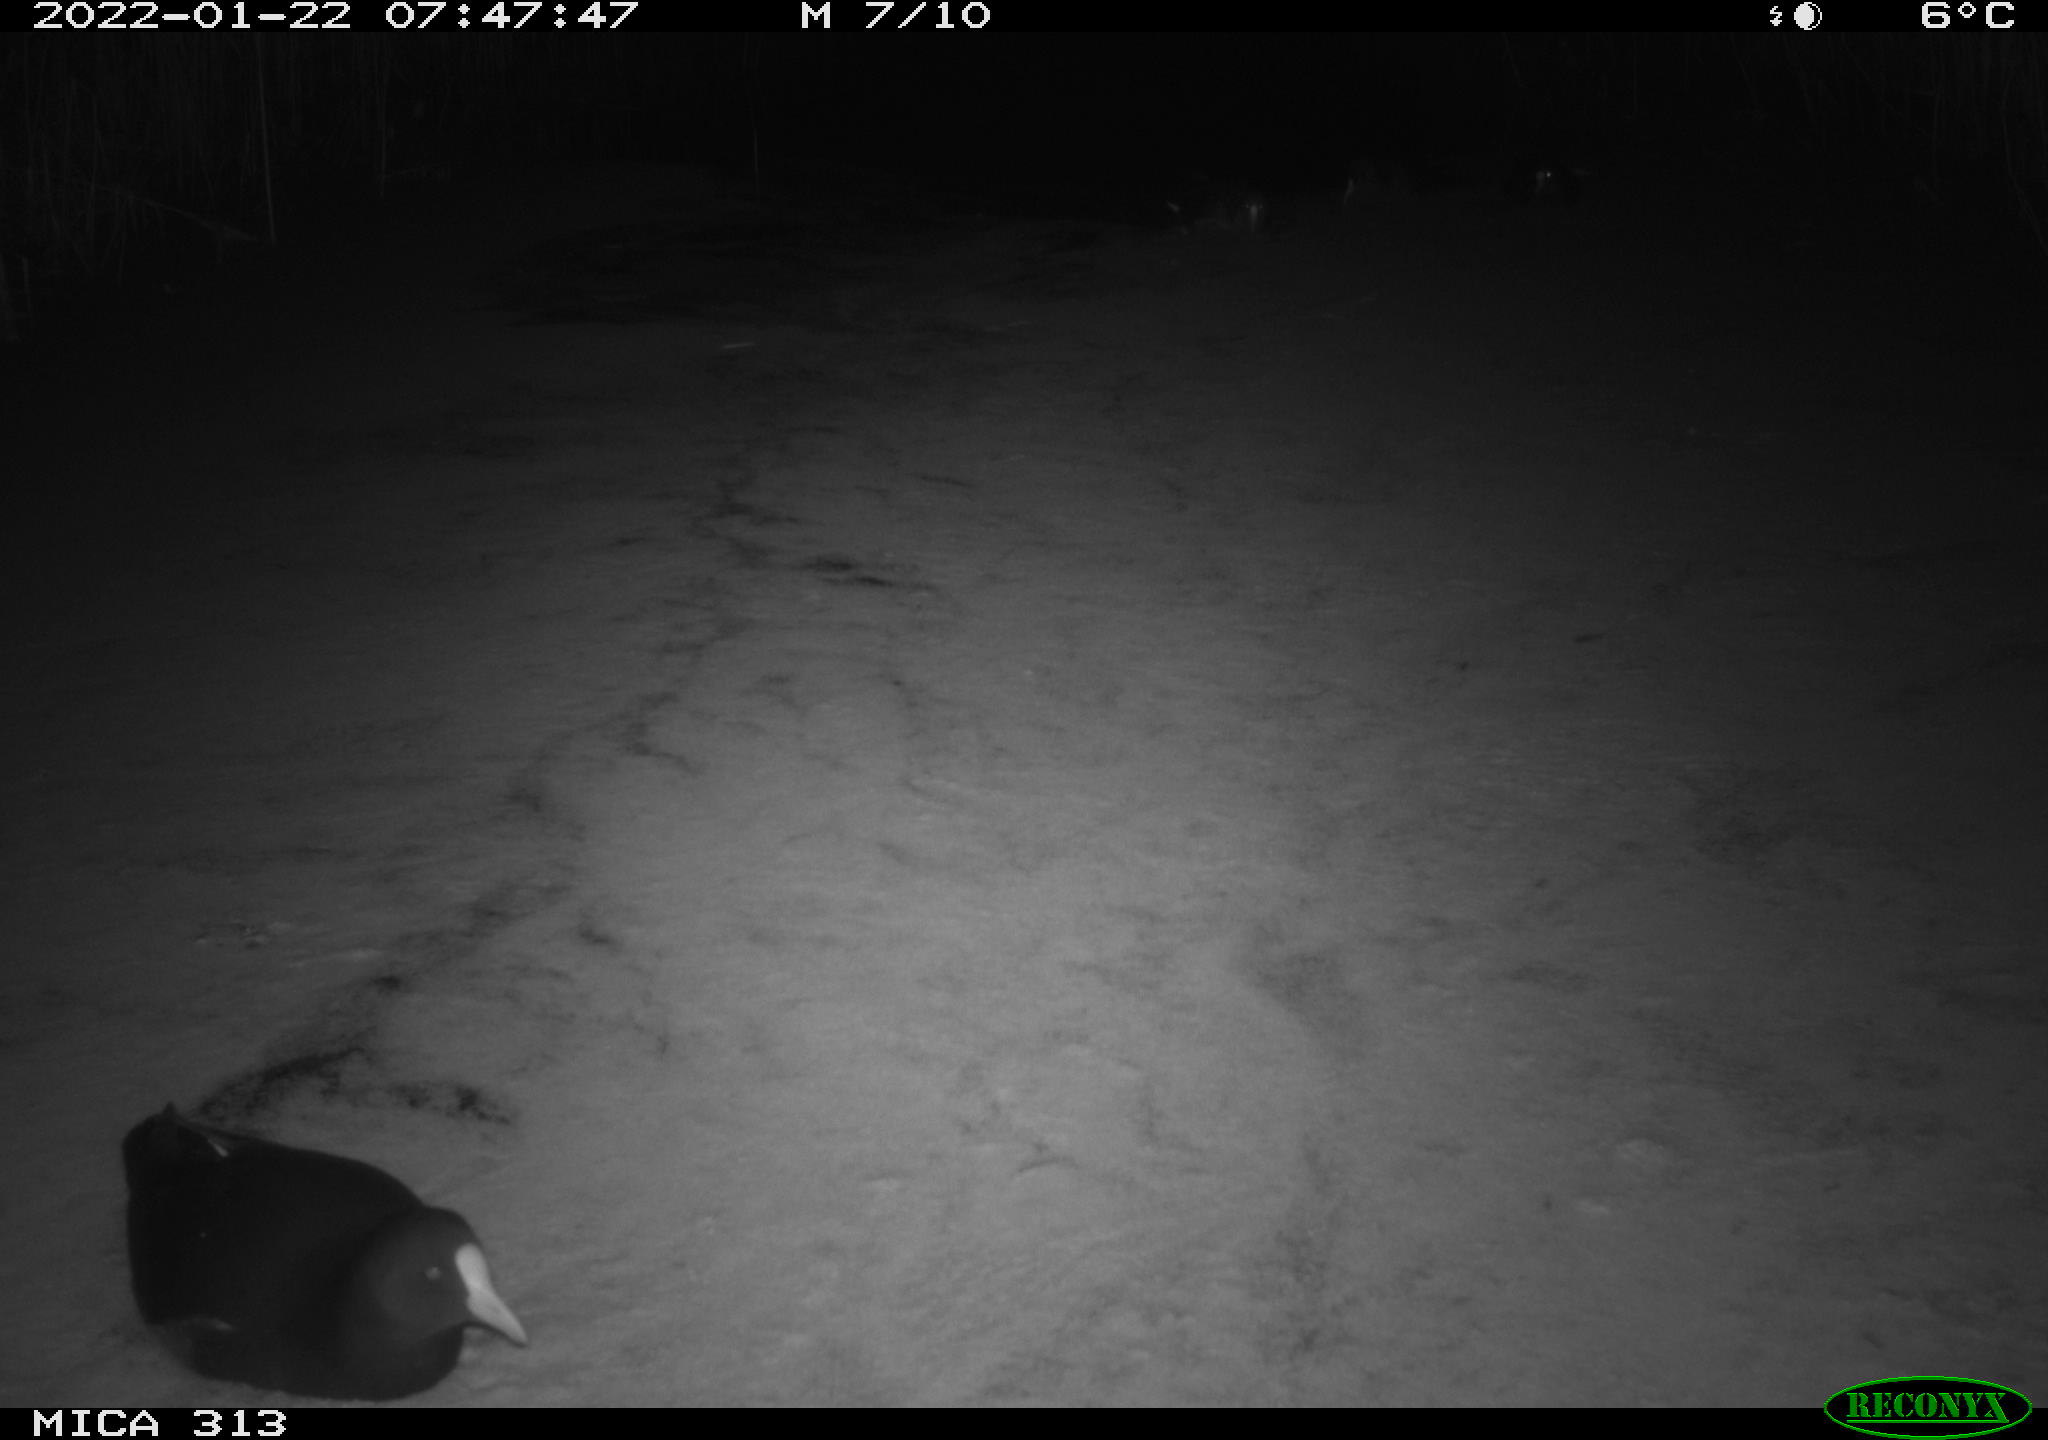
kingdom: Animalia
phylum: Chordata
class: Aves
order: Gruiformes
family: Rallidae
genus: Gallinula
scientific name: Gallinula chloropus
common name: Common moorhen
